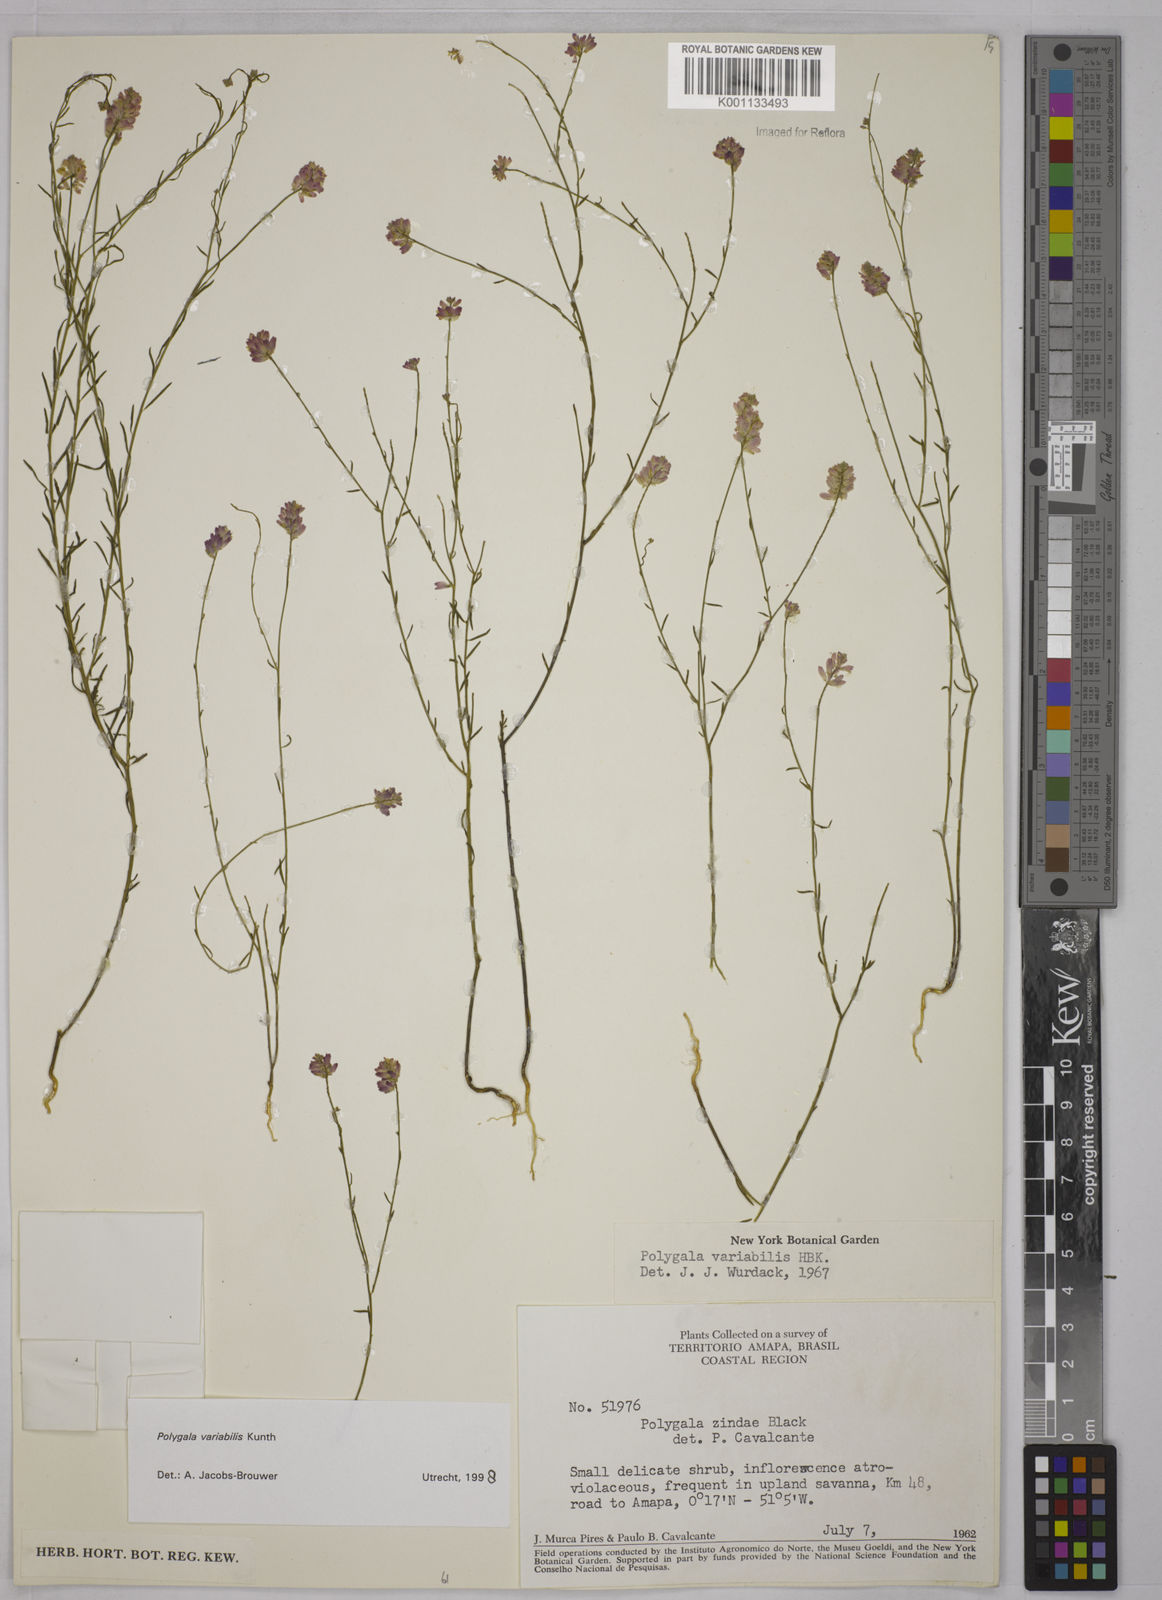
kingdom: Plantae
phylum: Tracheophyta
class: Magnoliopsida
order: Fabales
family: Polygalaceae
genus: Polygala
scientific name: Polygala trichosperma
